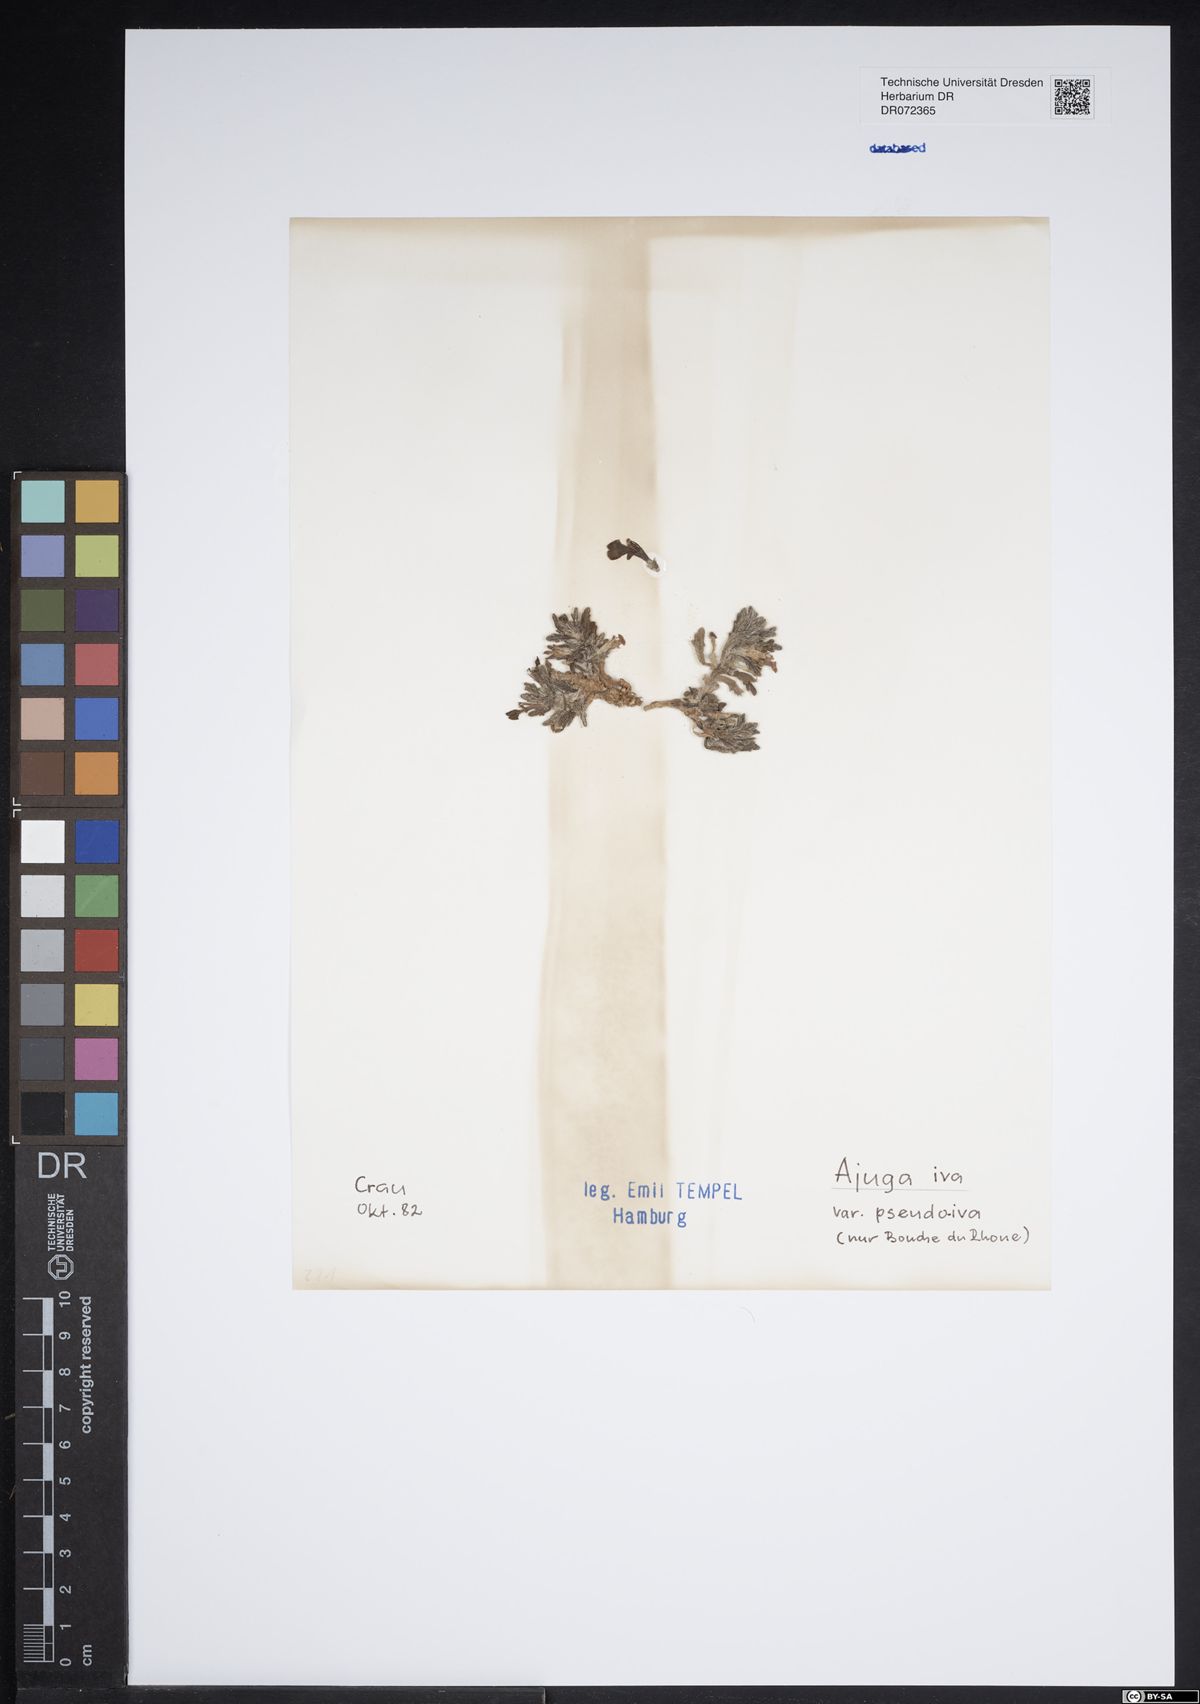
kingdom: Plantae
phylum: Tracheophyta
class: Magnoliopsida
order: Lamiales
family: Lamiaceae
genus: Ajuga
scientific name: Ajuga iva
